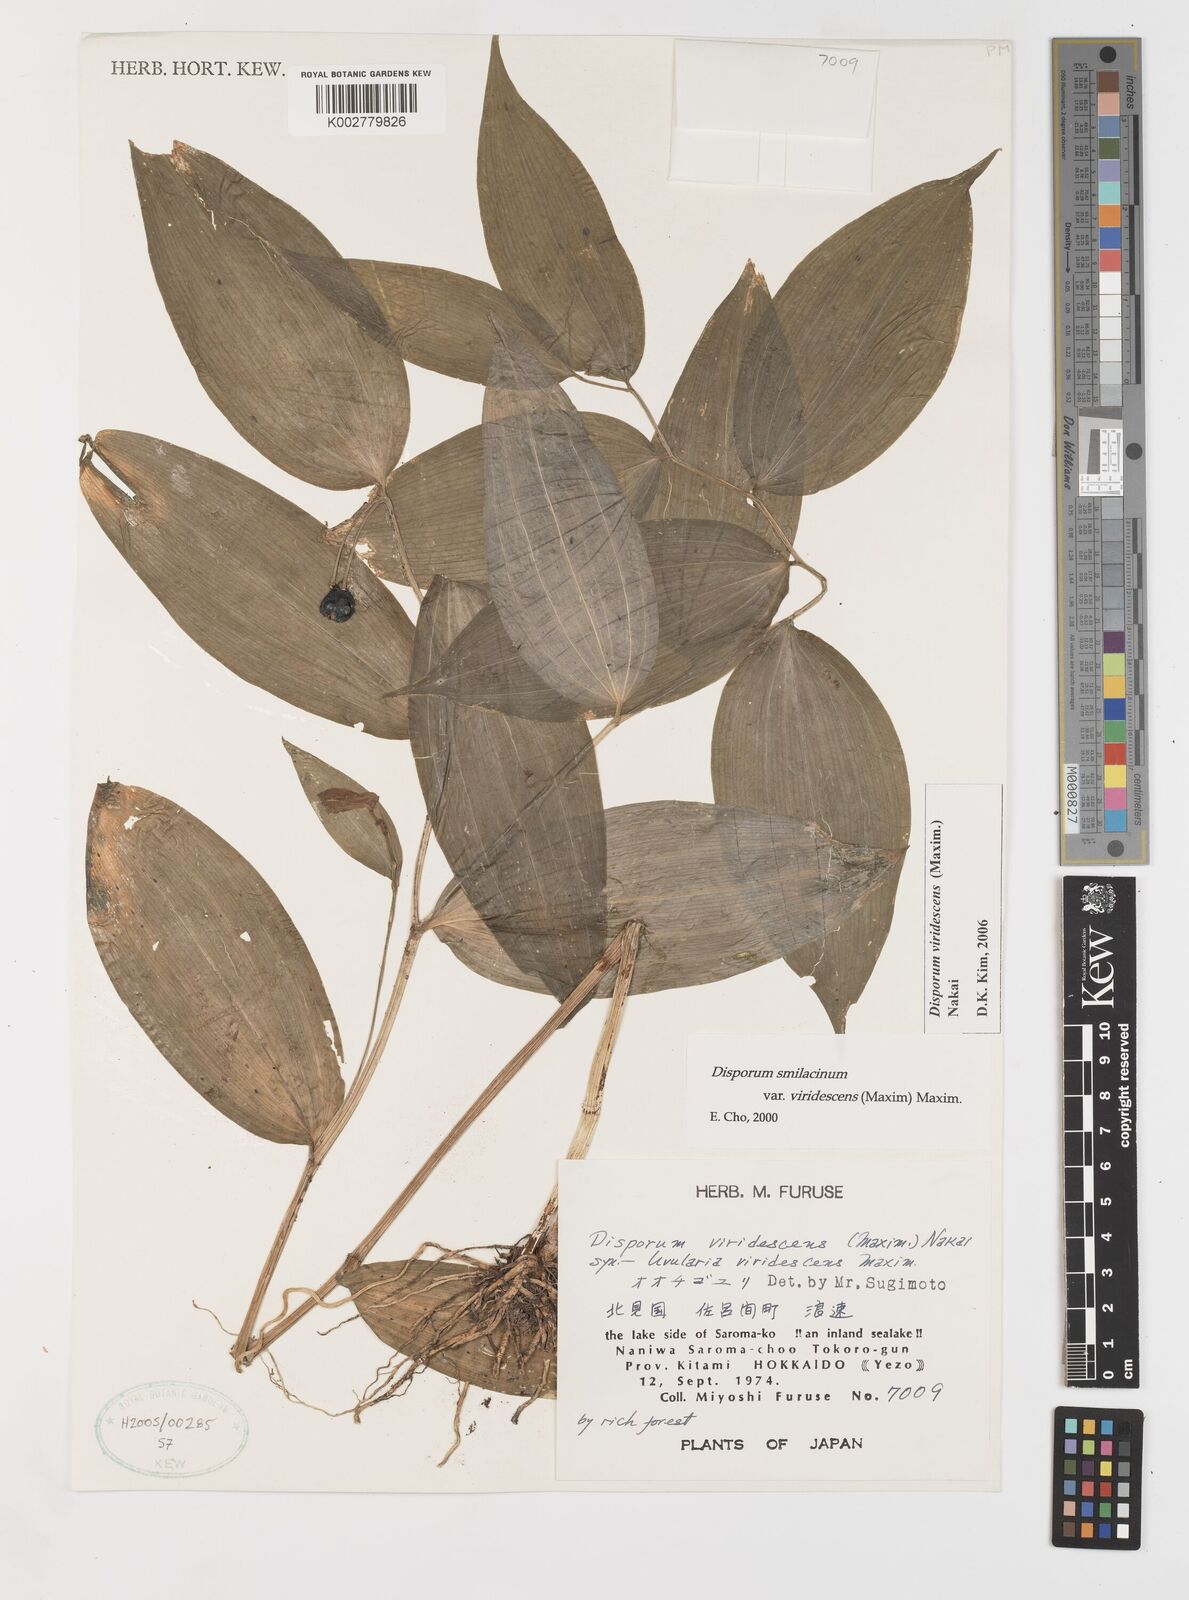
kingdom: Plantae
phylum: Tracheophyta
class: Liliopsida
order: Liliales
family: Colchicaceae
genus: Disporum
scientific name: Disporum smilacinum
